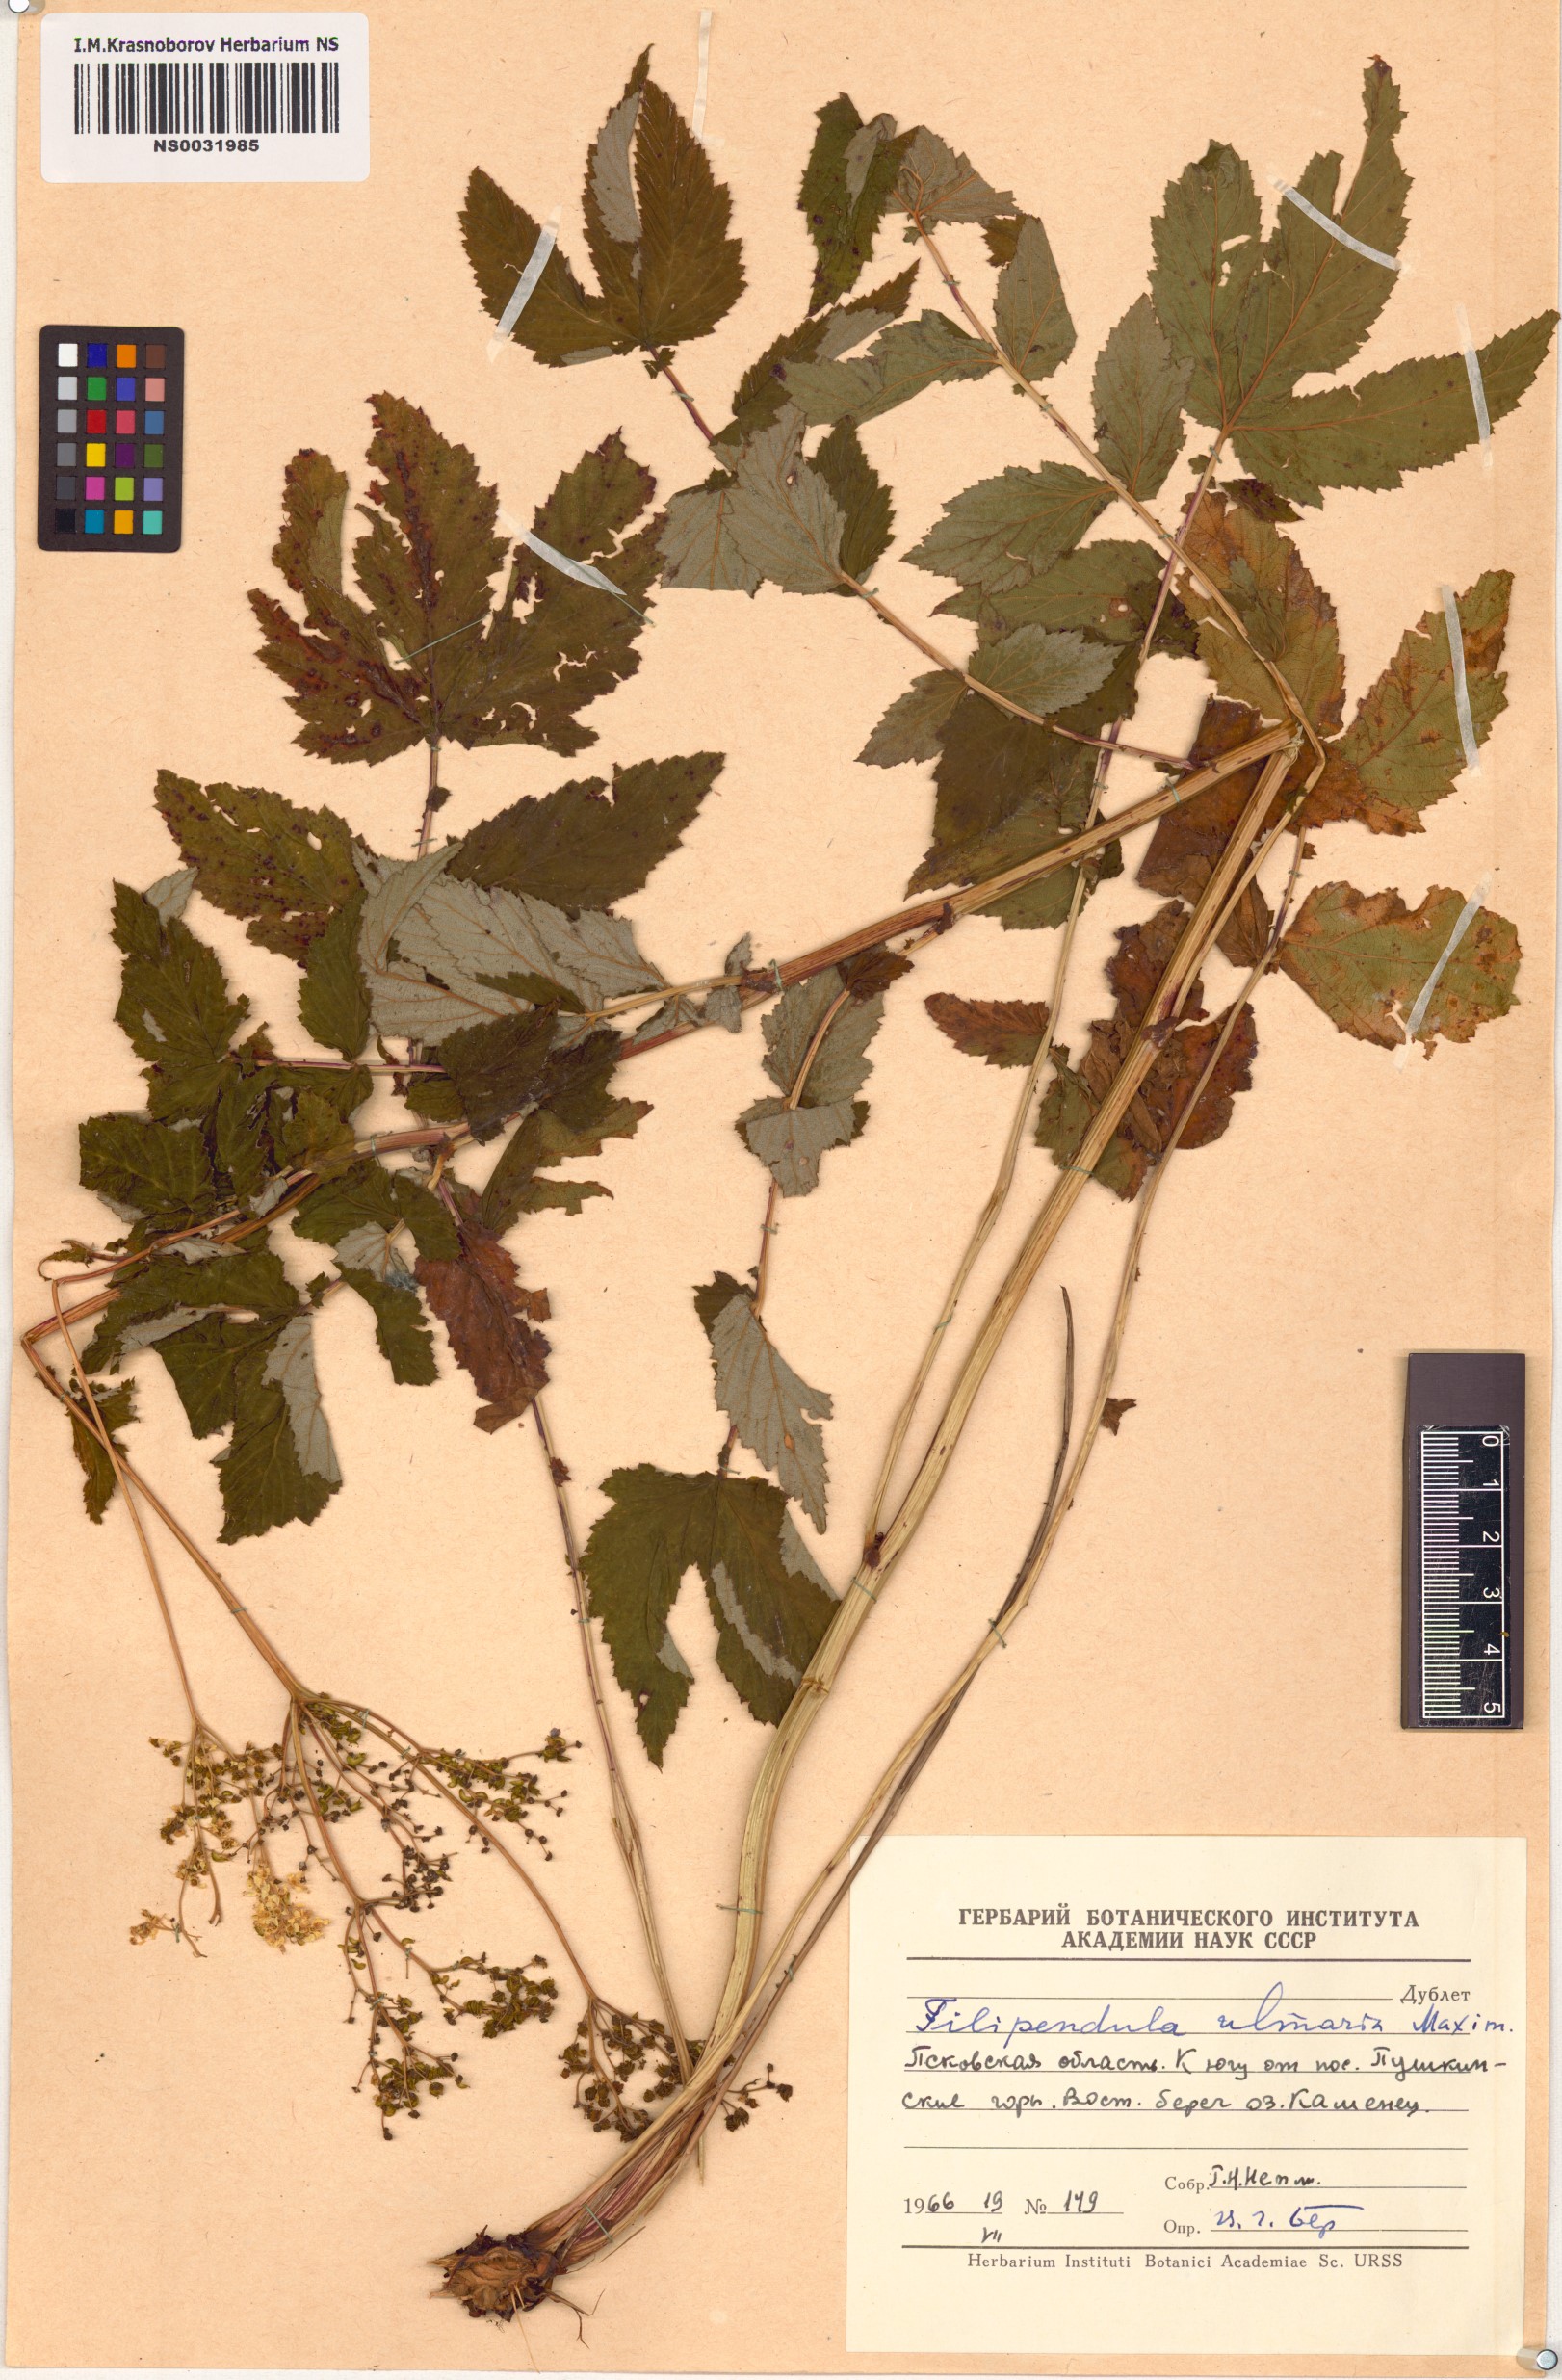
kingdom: Plantae
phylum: Tracheophyta
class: Magnoliopsida
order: Rosales
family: Rosaceae
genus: Filipendula
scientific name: Filipendula ulmaria
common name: Meadowsweet
